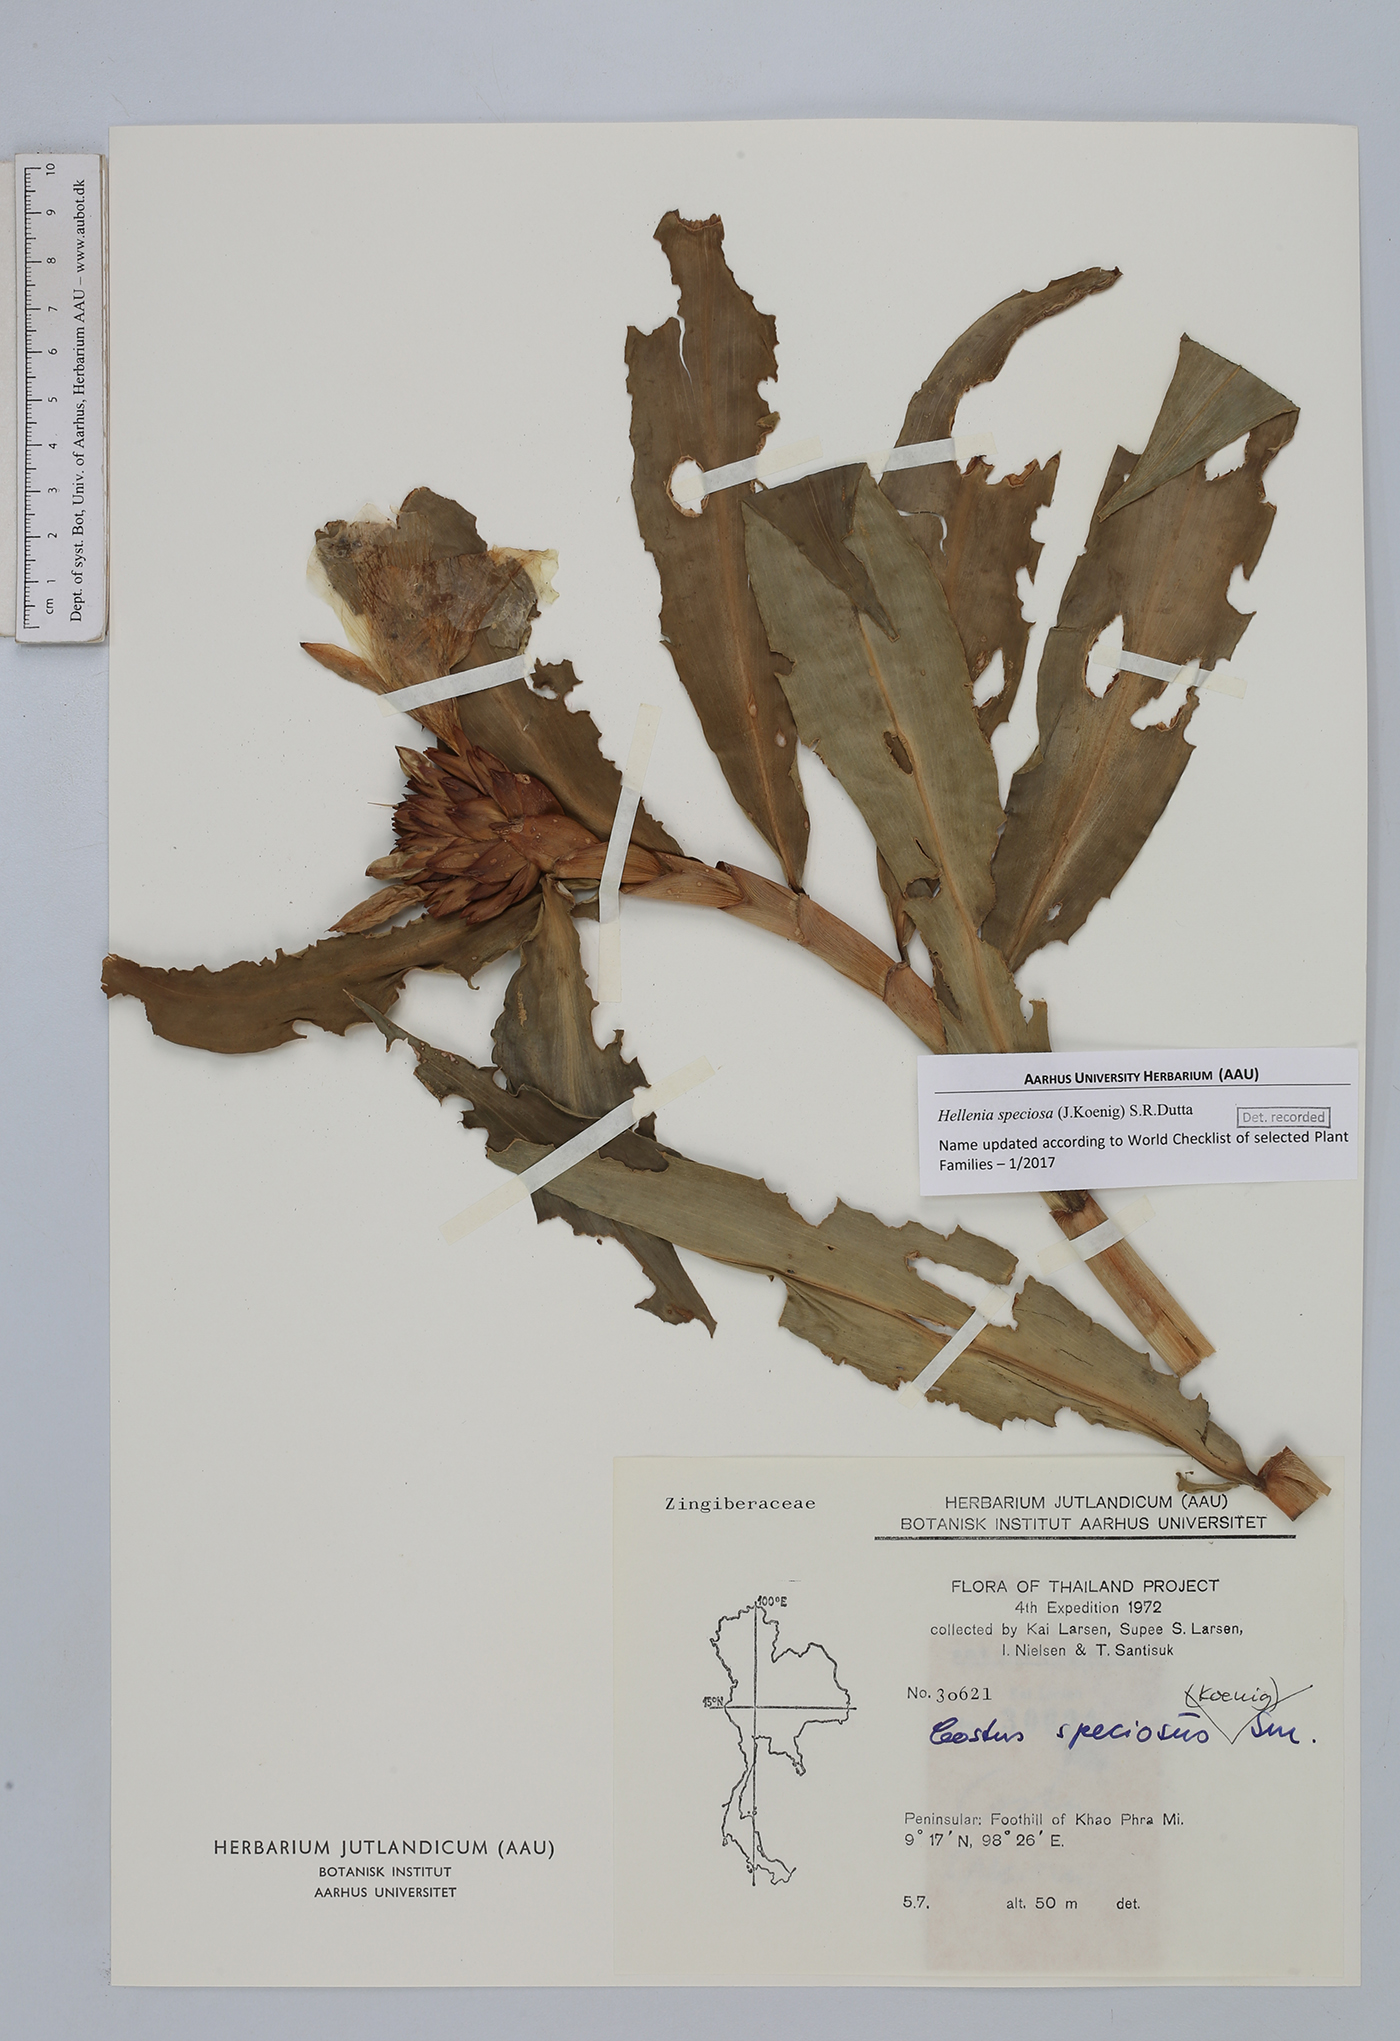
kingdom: Plantae
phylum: Tracheophyta
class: Liliopsida
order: Zingiberales
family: Costaceae
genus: Hellenia
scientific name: Hellenia speciosa
